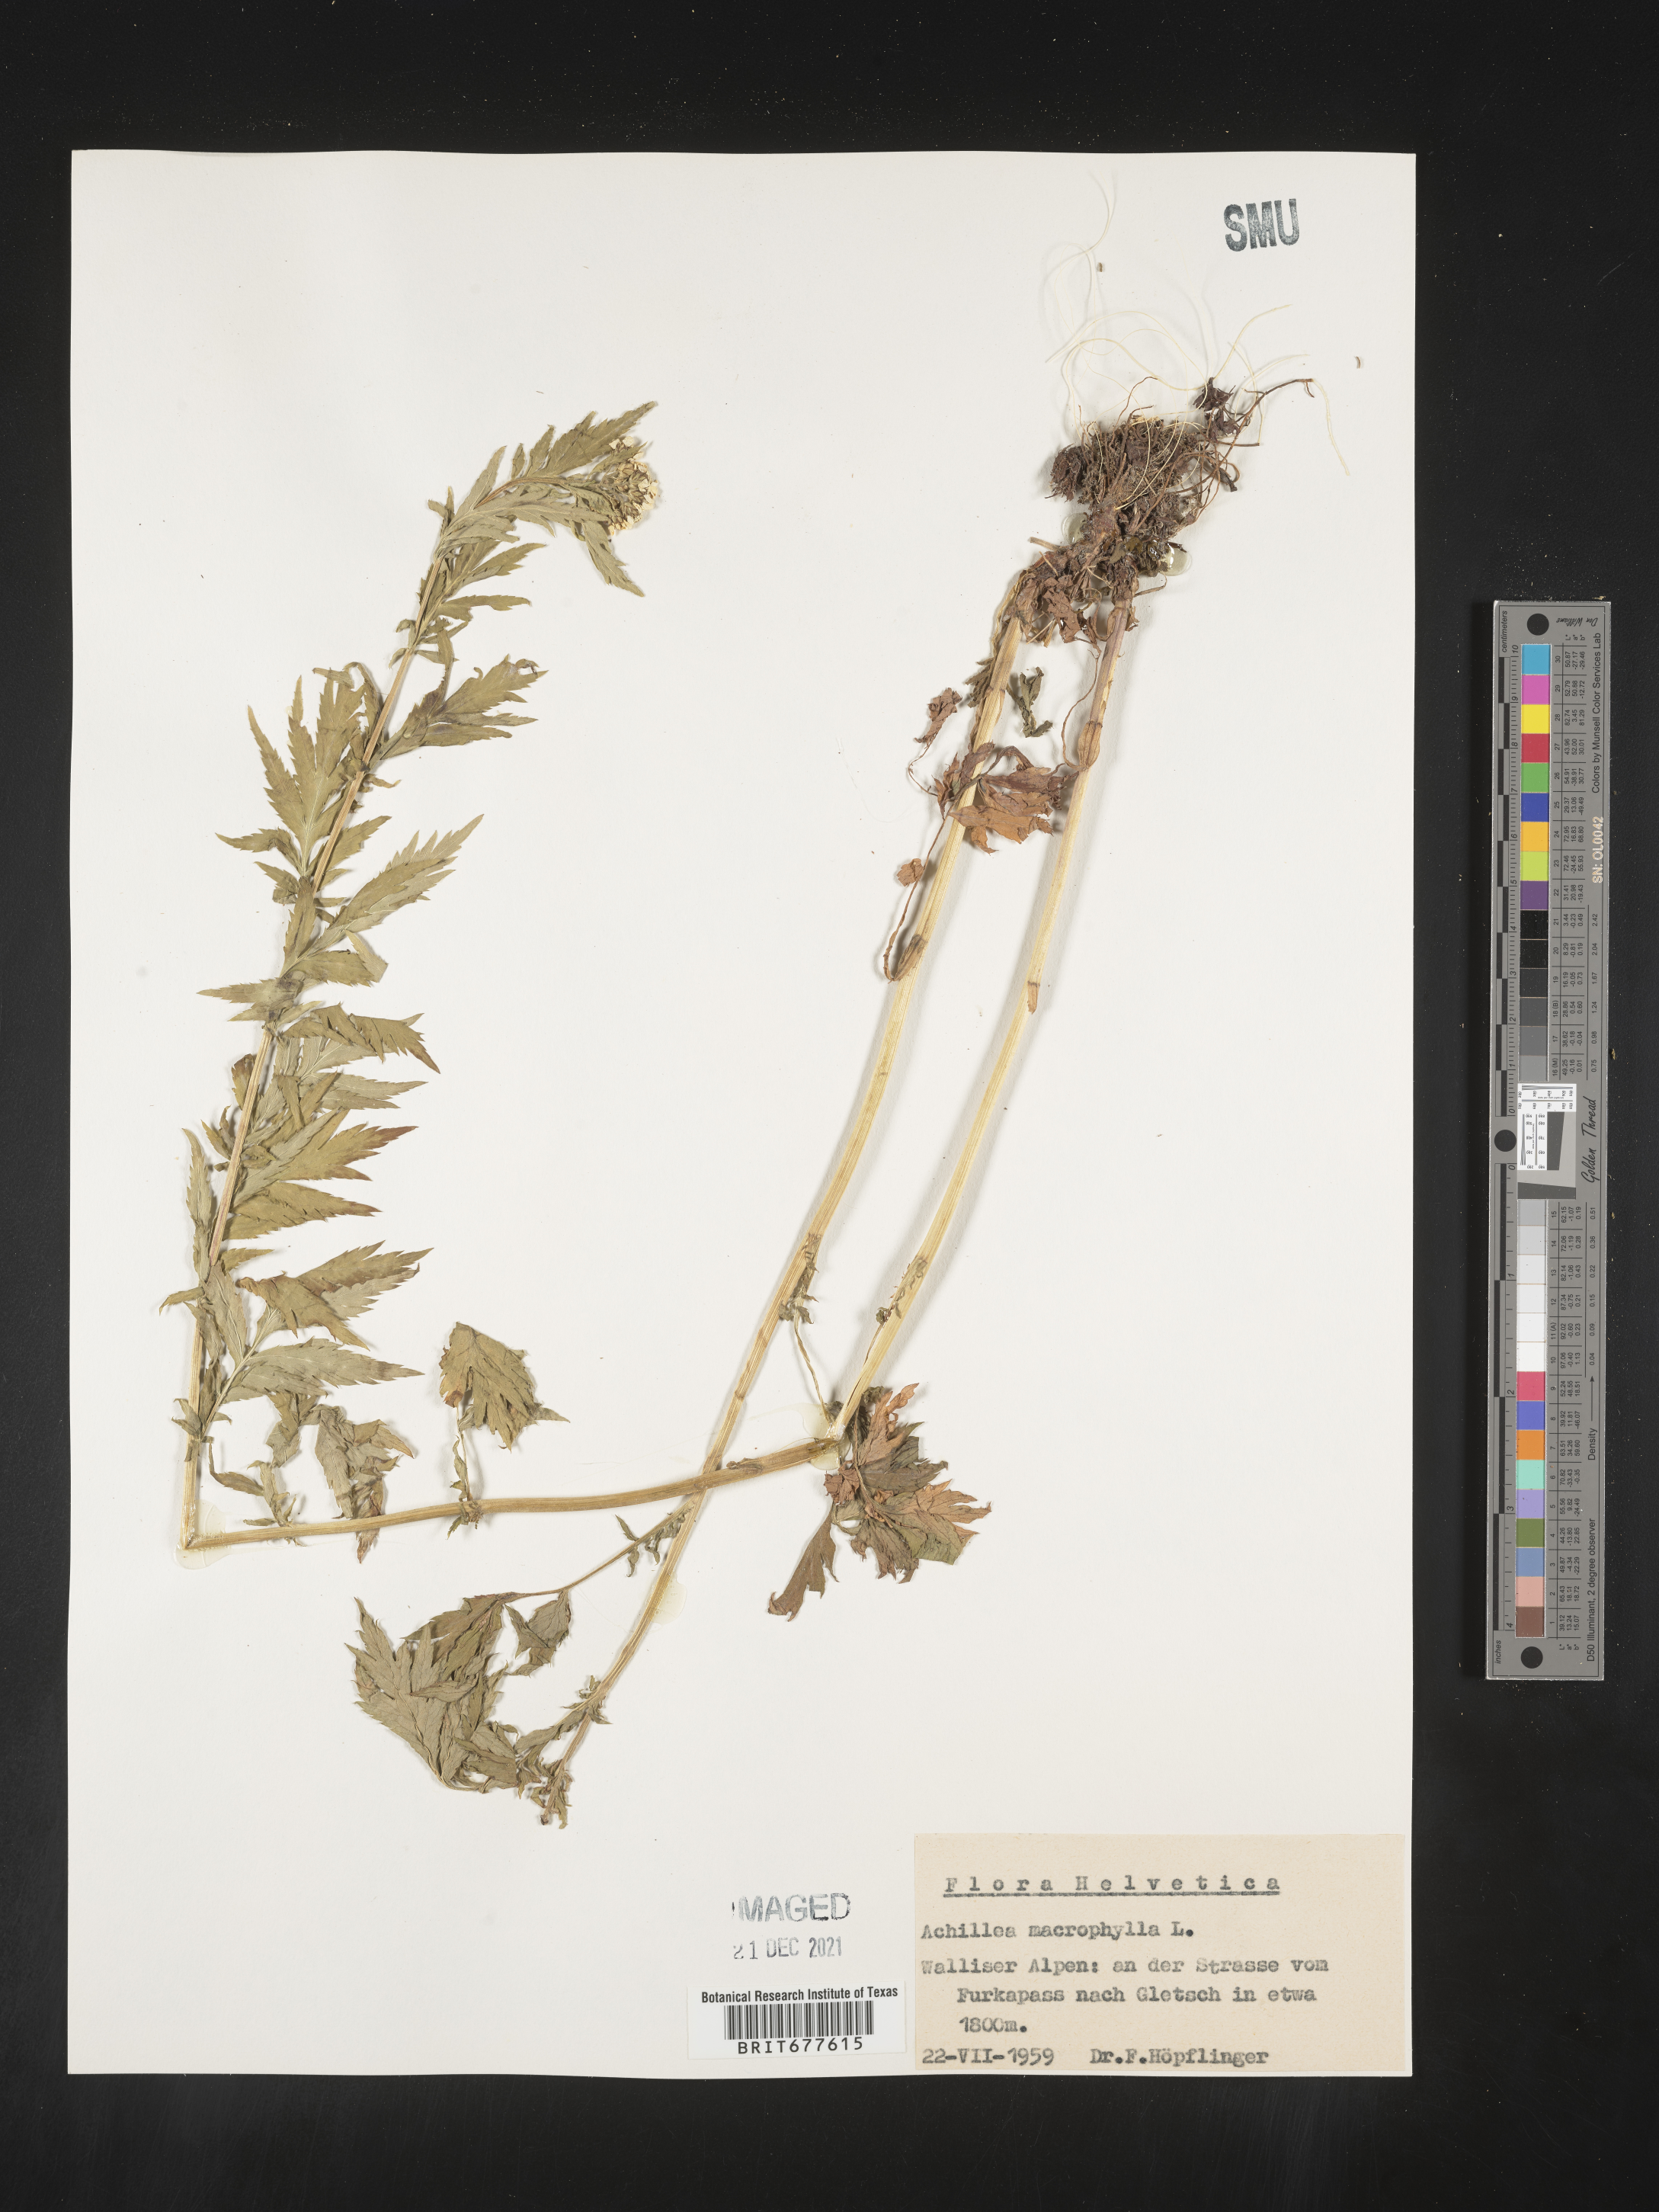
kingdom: Plantae
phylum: Tracheophyta
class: Magnoliopsida
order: Asterales
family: Asteraceae
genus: Achillea
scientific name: Achillea millefolium
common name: Yarrow
